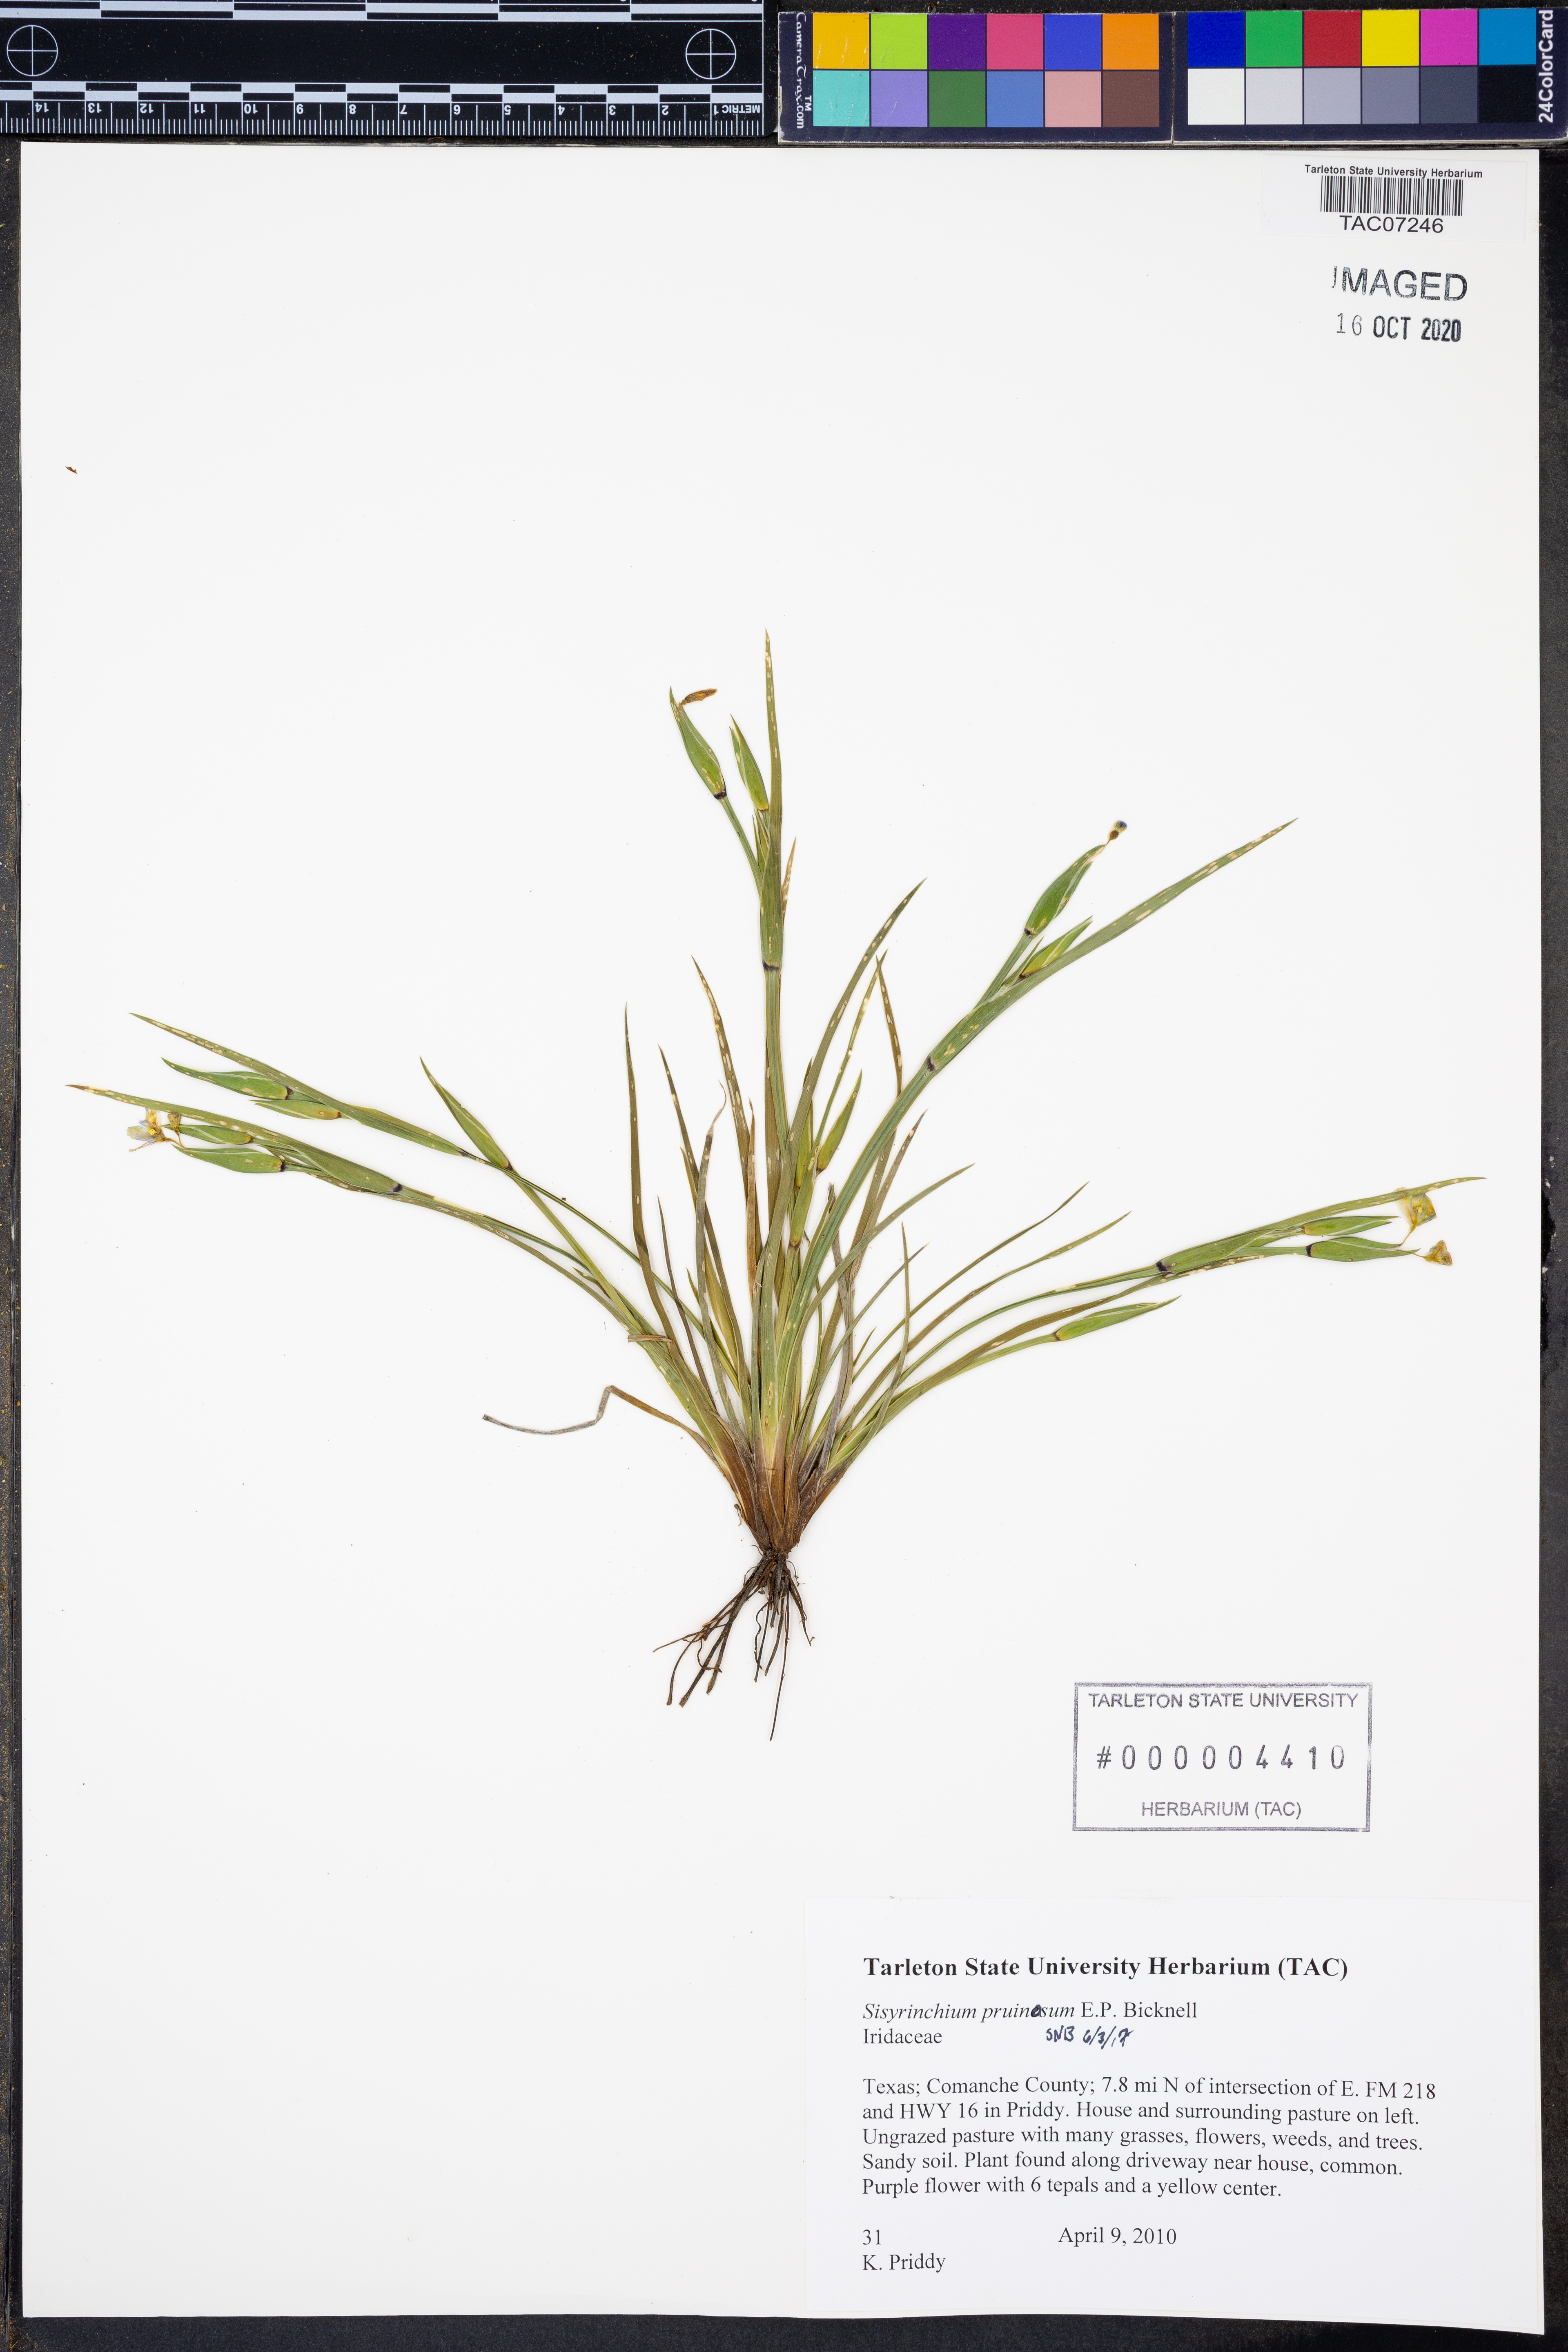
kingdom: Plantae
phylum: Tracheophyta
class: Liliopsida
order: Asparagales
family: Iridaceae
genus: Sisyrinchium
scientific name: Sisyrinchium pruinosum
